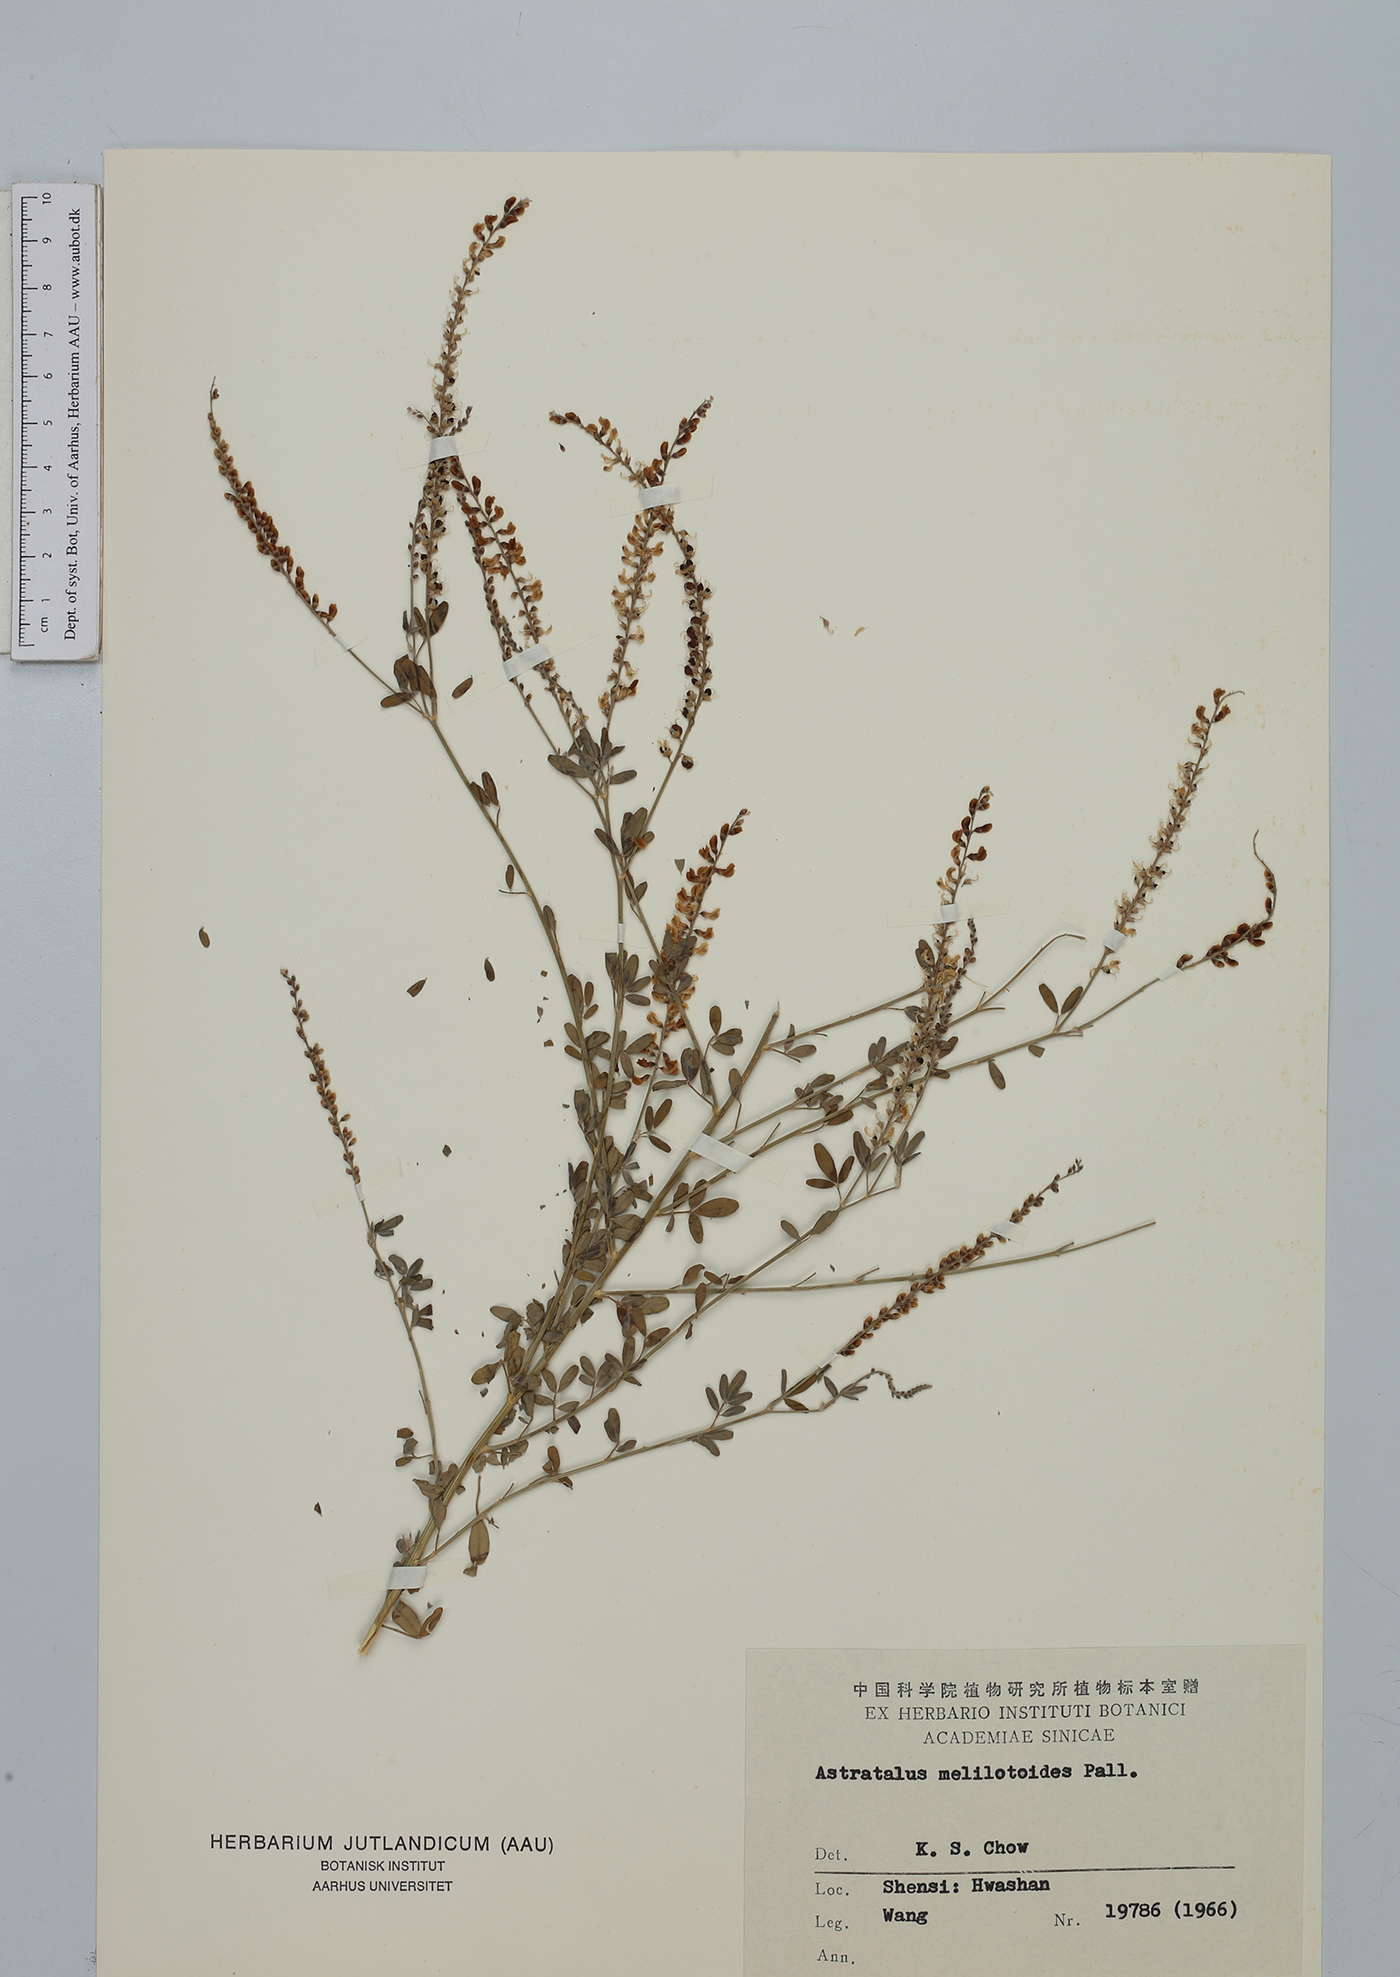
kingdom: Plantae
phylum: Tracheophyta
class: Magnoliopsida
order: Fabales
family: Fabaceae
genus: Astragalus
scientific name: Astragalus melilotoides
